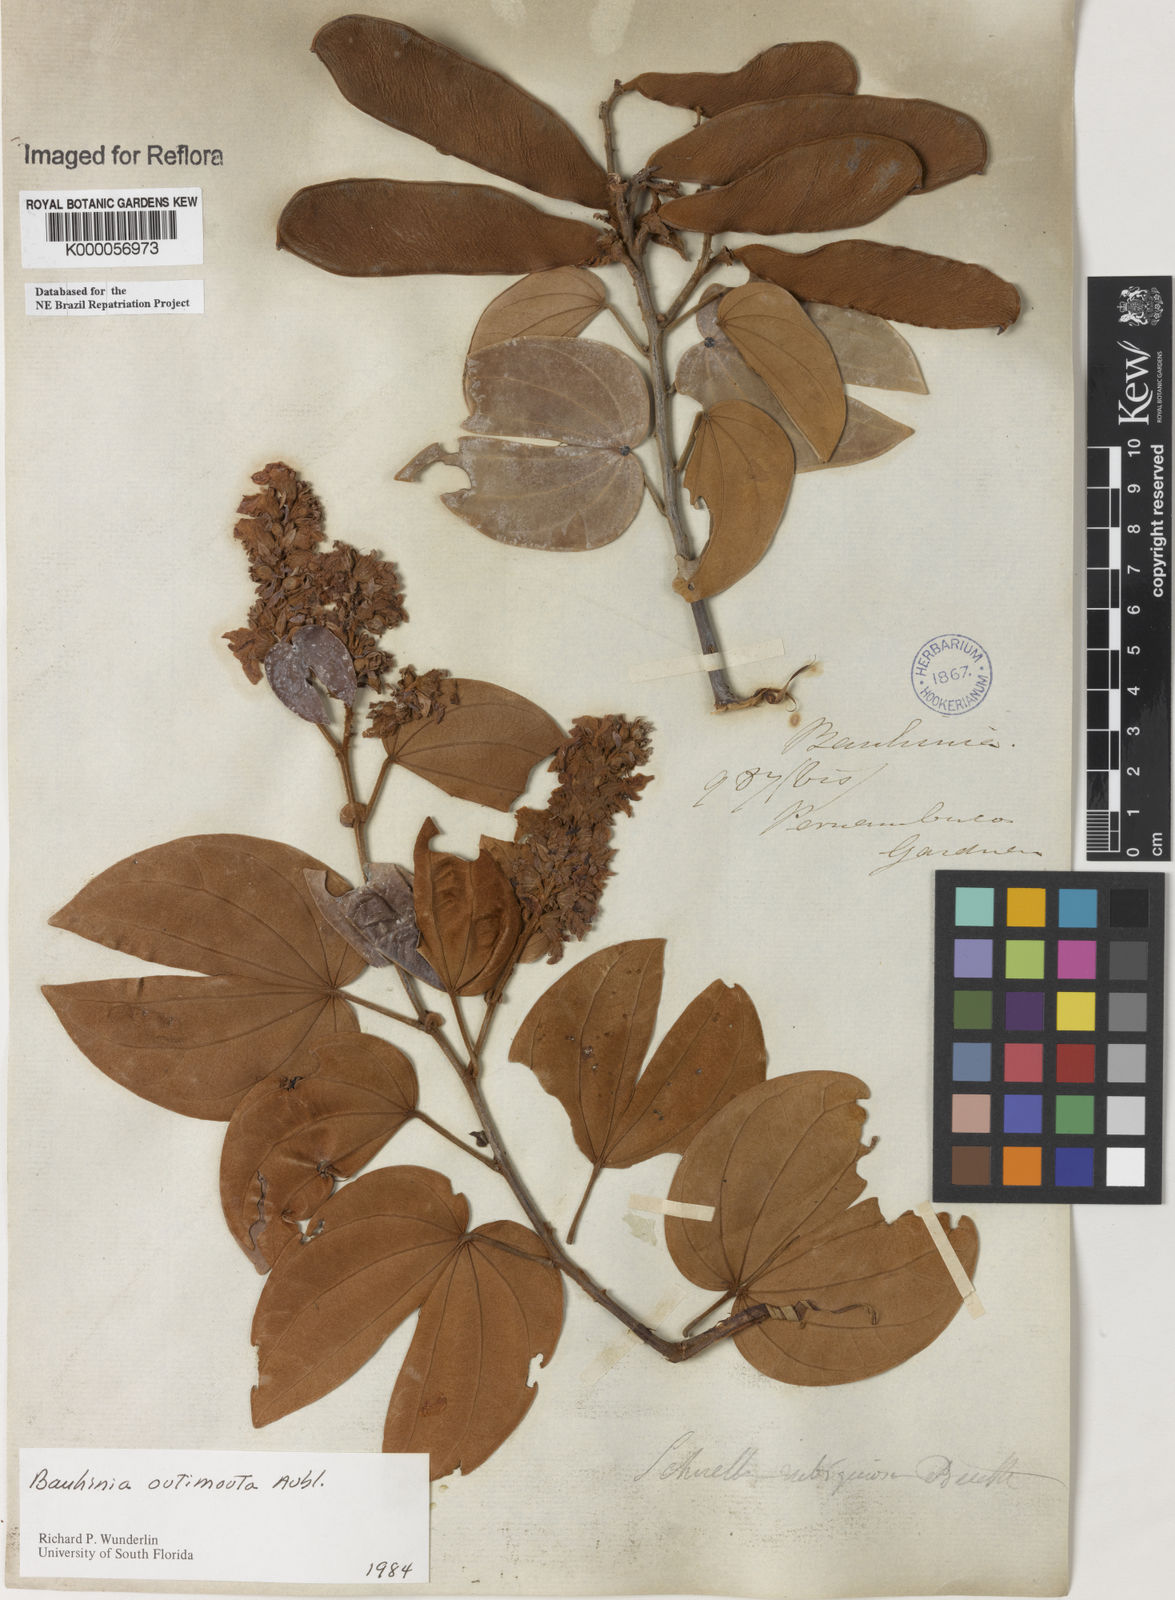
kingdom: Plantae
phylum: Tracheophyta
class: Magnoliopsida
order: Fabales
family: Fabaceae
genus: Schnella
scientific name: Schnella outimouta
